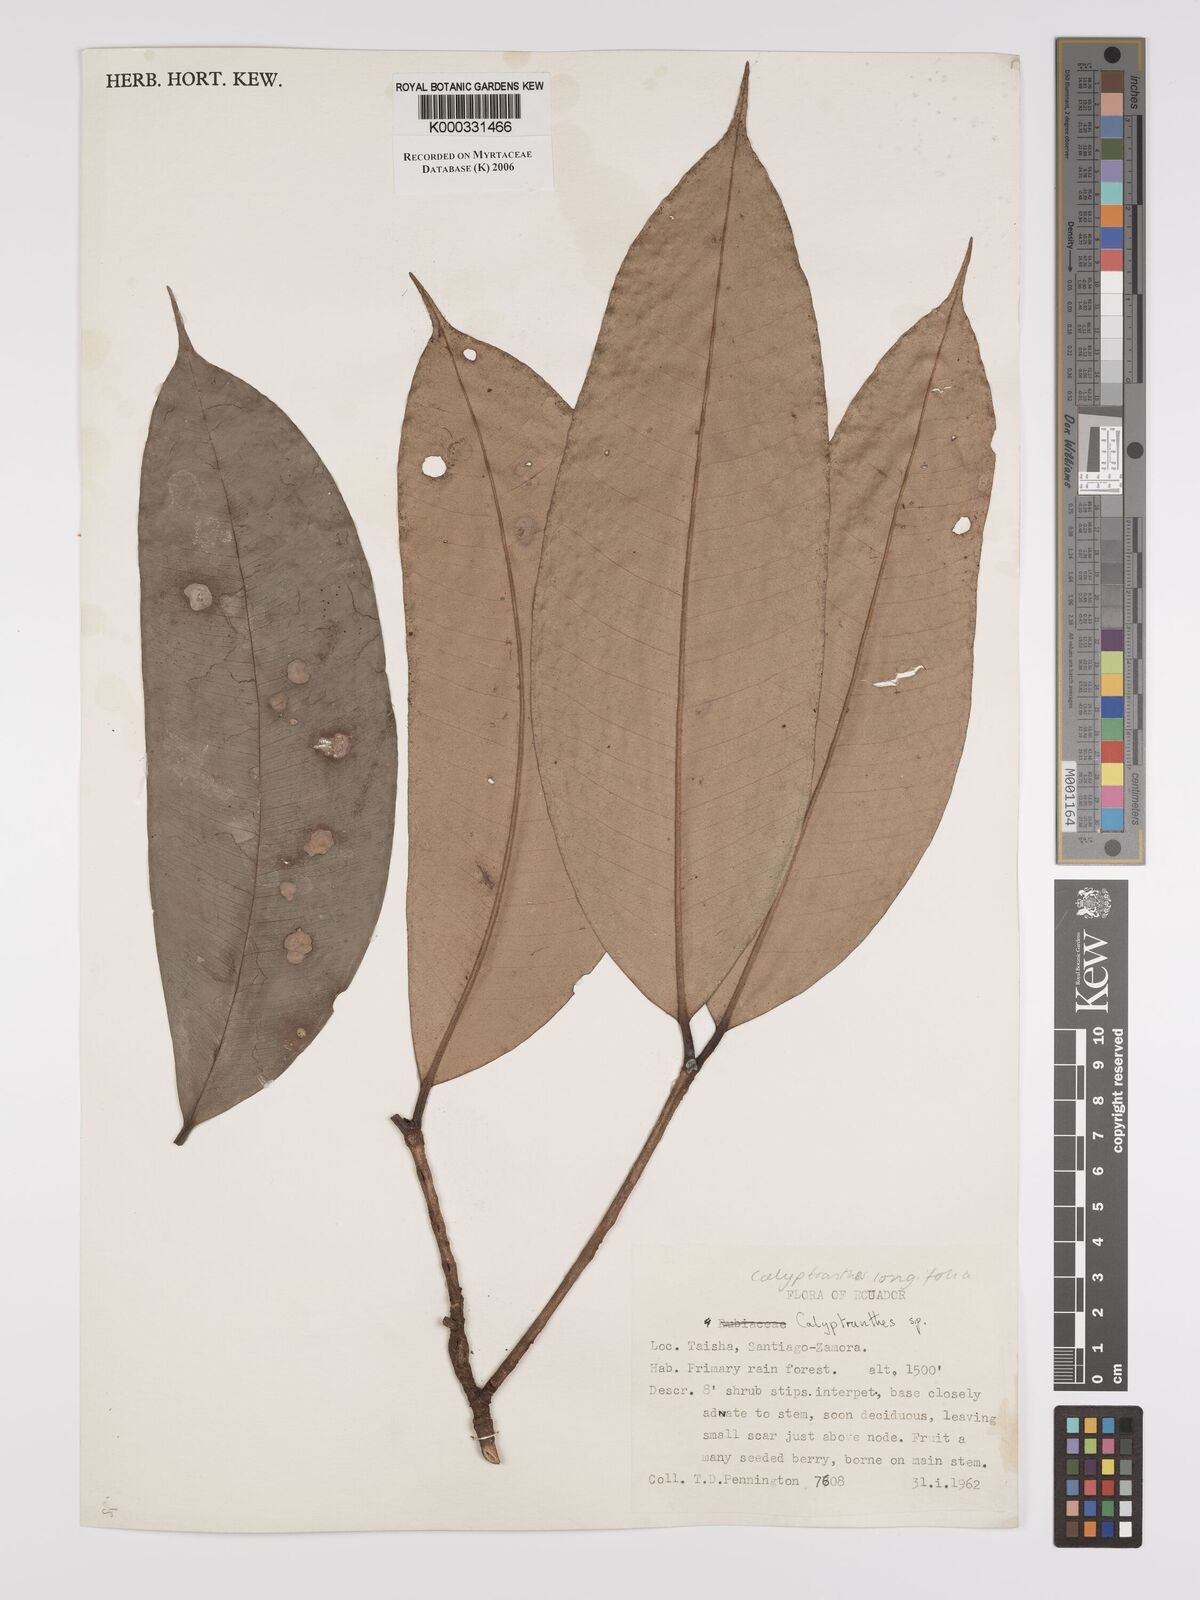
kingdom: Plantae
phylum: Tracheophyta
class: Magnoliopsida
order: Myrtales
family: Myrtaceae
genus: Myrcia
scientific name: Myrcia telephylla
